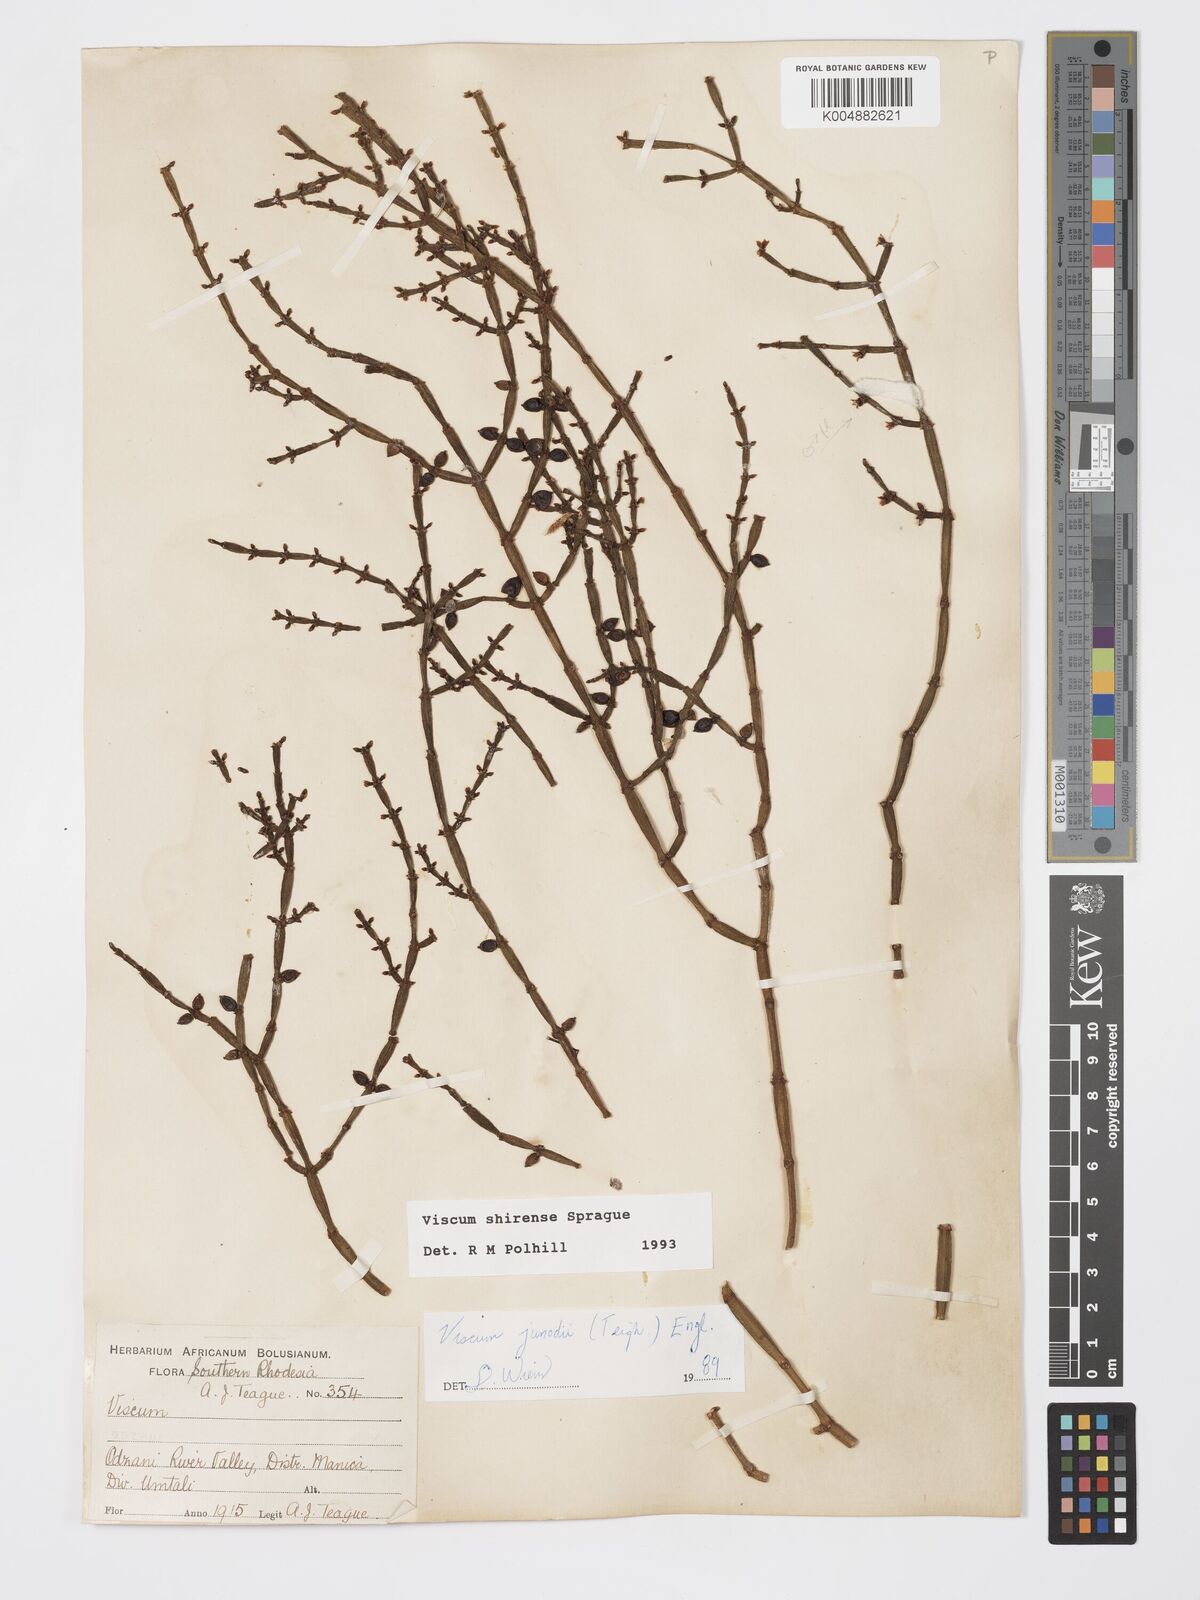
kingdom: Plantae
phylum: Tracheophyta
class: Magnoliopsida
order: Santalales
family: Viscaceae
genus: Viscum
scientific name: Viscum junodii
